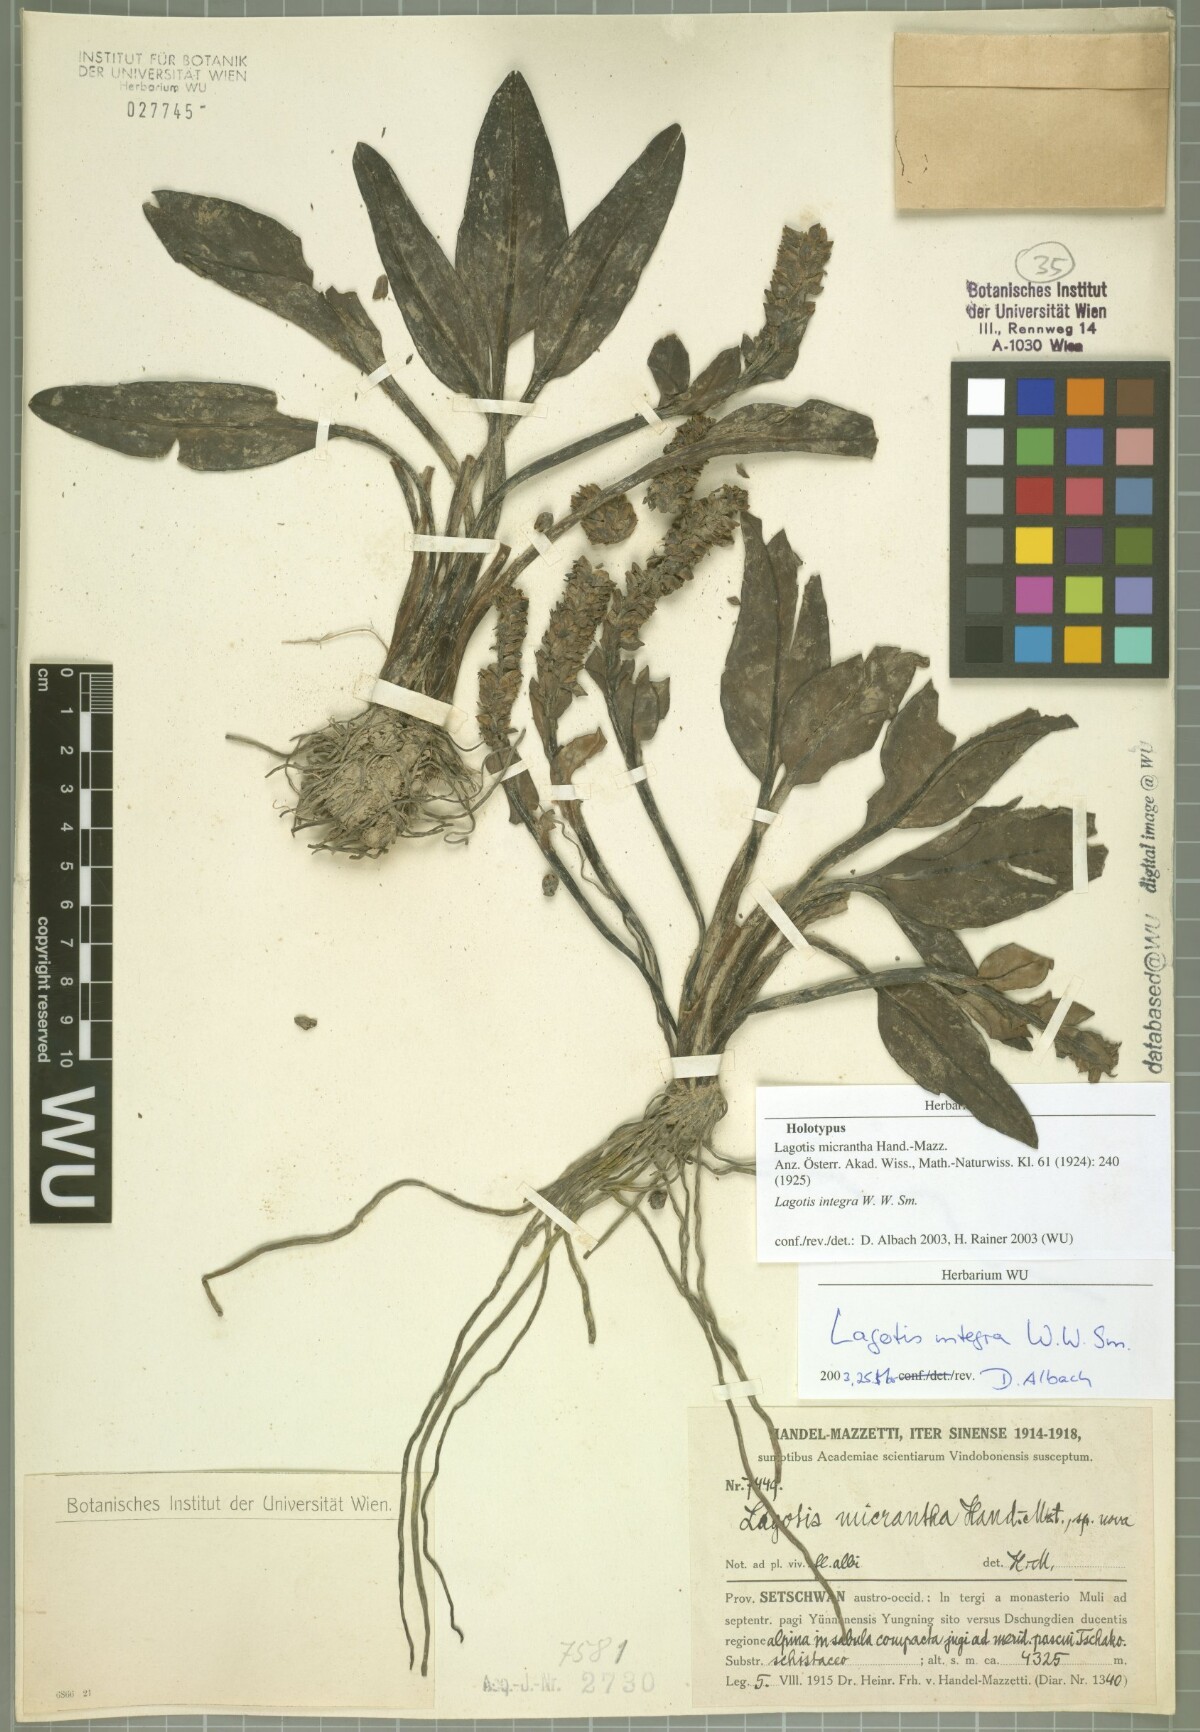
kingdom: Plantae
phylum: Tracheophyta
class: Magnoliopsida
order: Lamiales
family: Plantaginaceae
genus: Lagotis
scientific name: Lagotis integra
